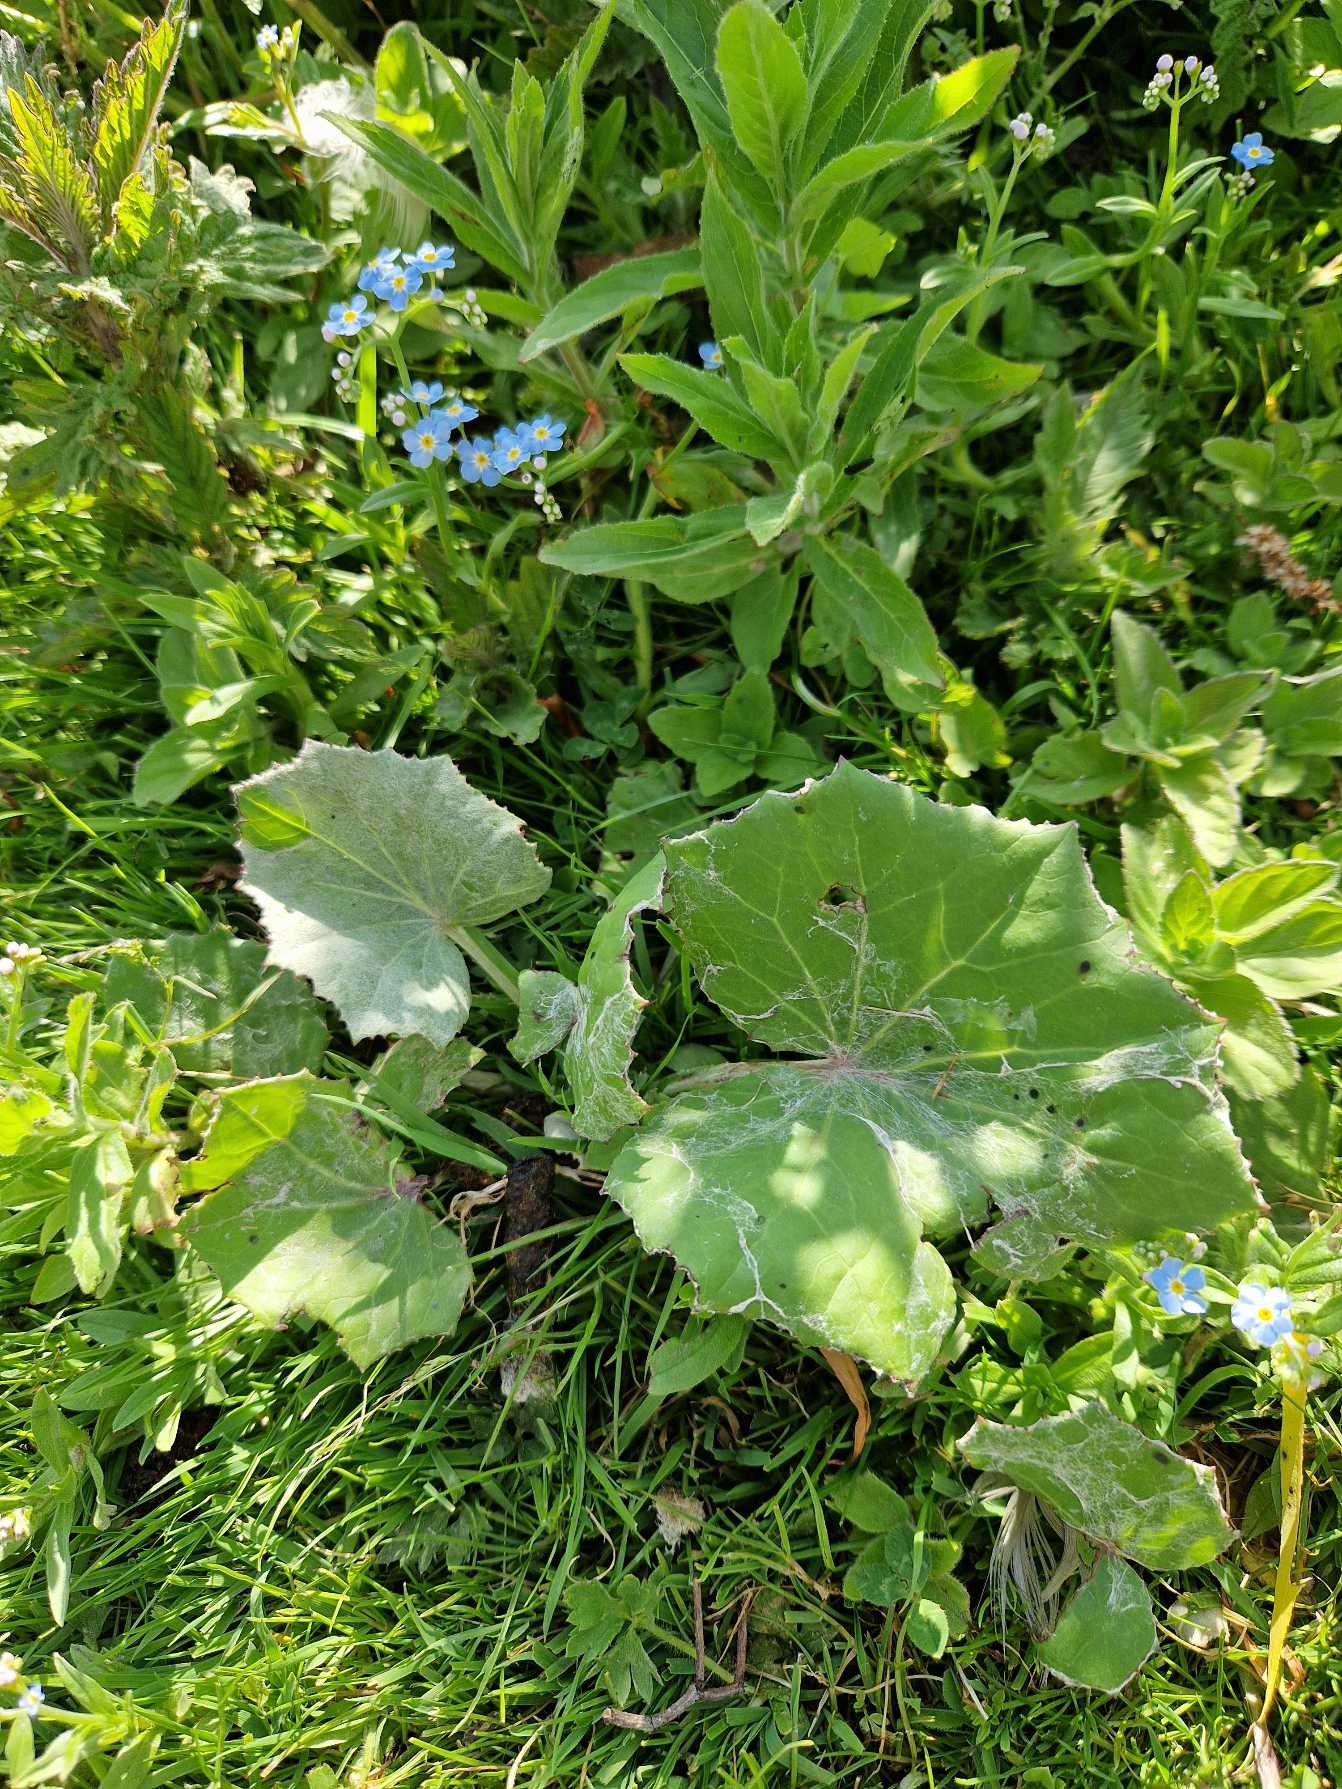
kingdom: Plantae
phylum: Tracheophyta
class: Magnoliopsida
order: Asterales
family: Asteraceae
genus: Tussilago
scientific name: Tussilago farfara
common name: Følfod
